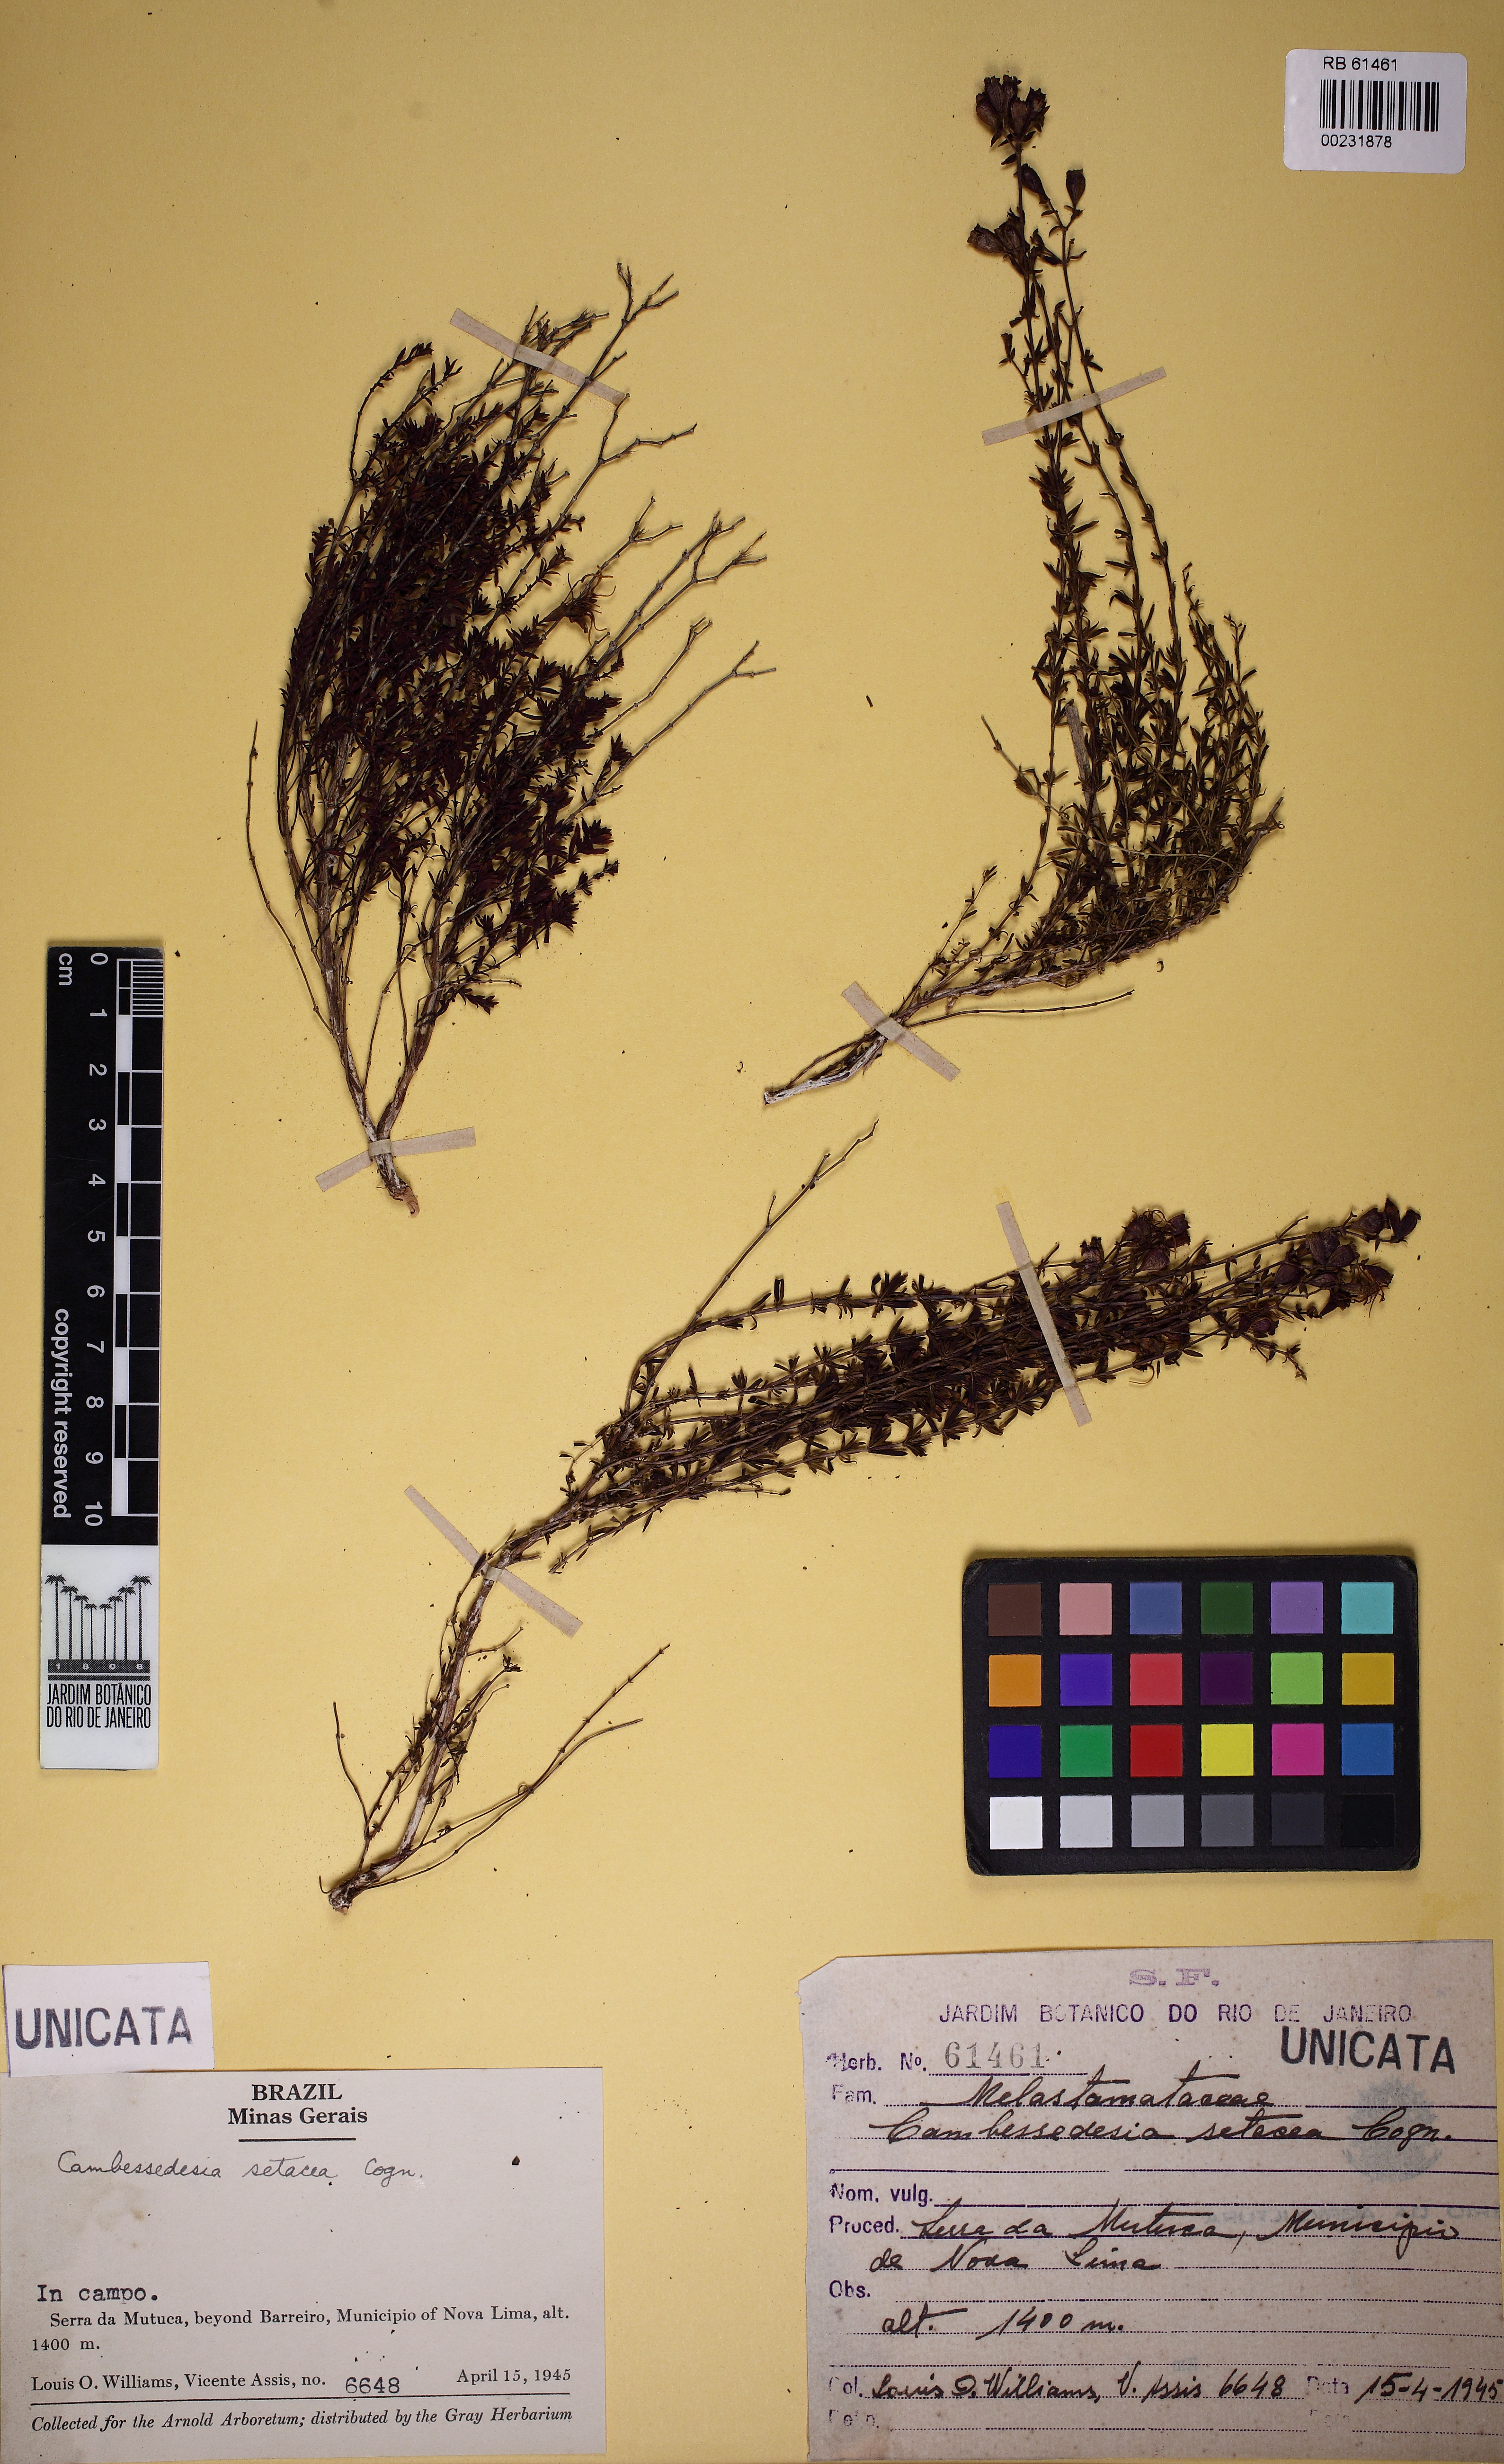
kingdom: Plantae
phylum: Tracheophyta
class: Magnoliopsida
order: Myrtales
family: Melastomataceae
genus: Cambessedesia
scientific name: Cambessedesia hilariana
